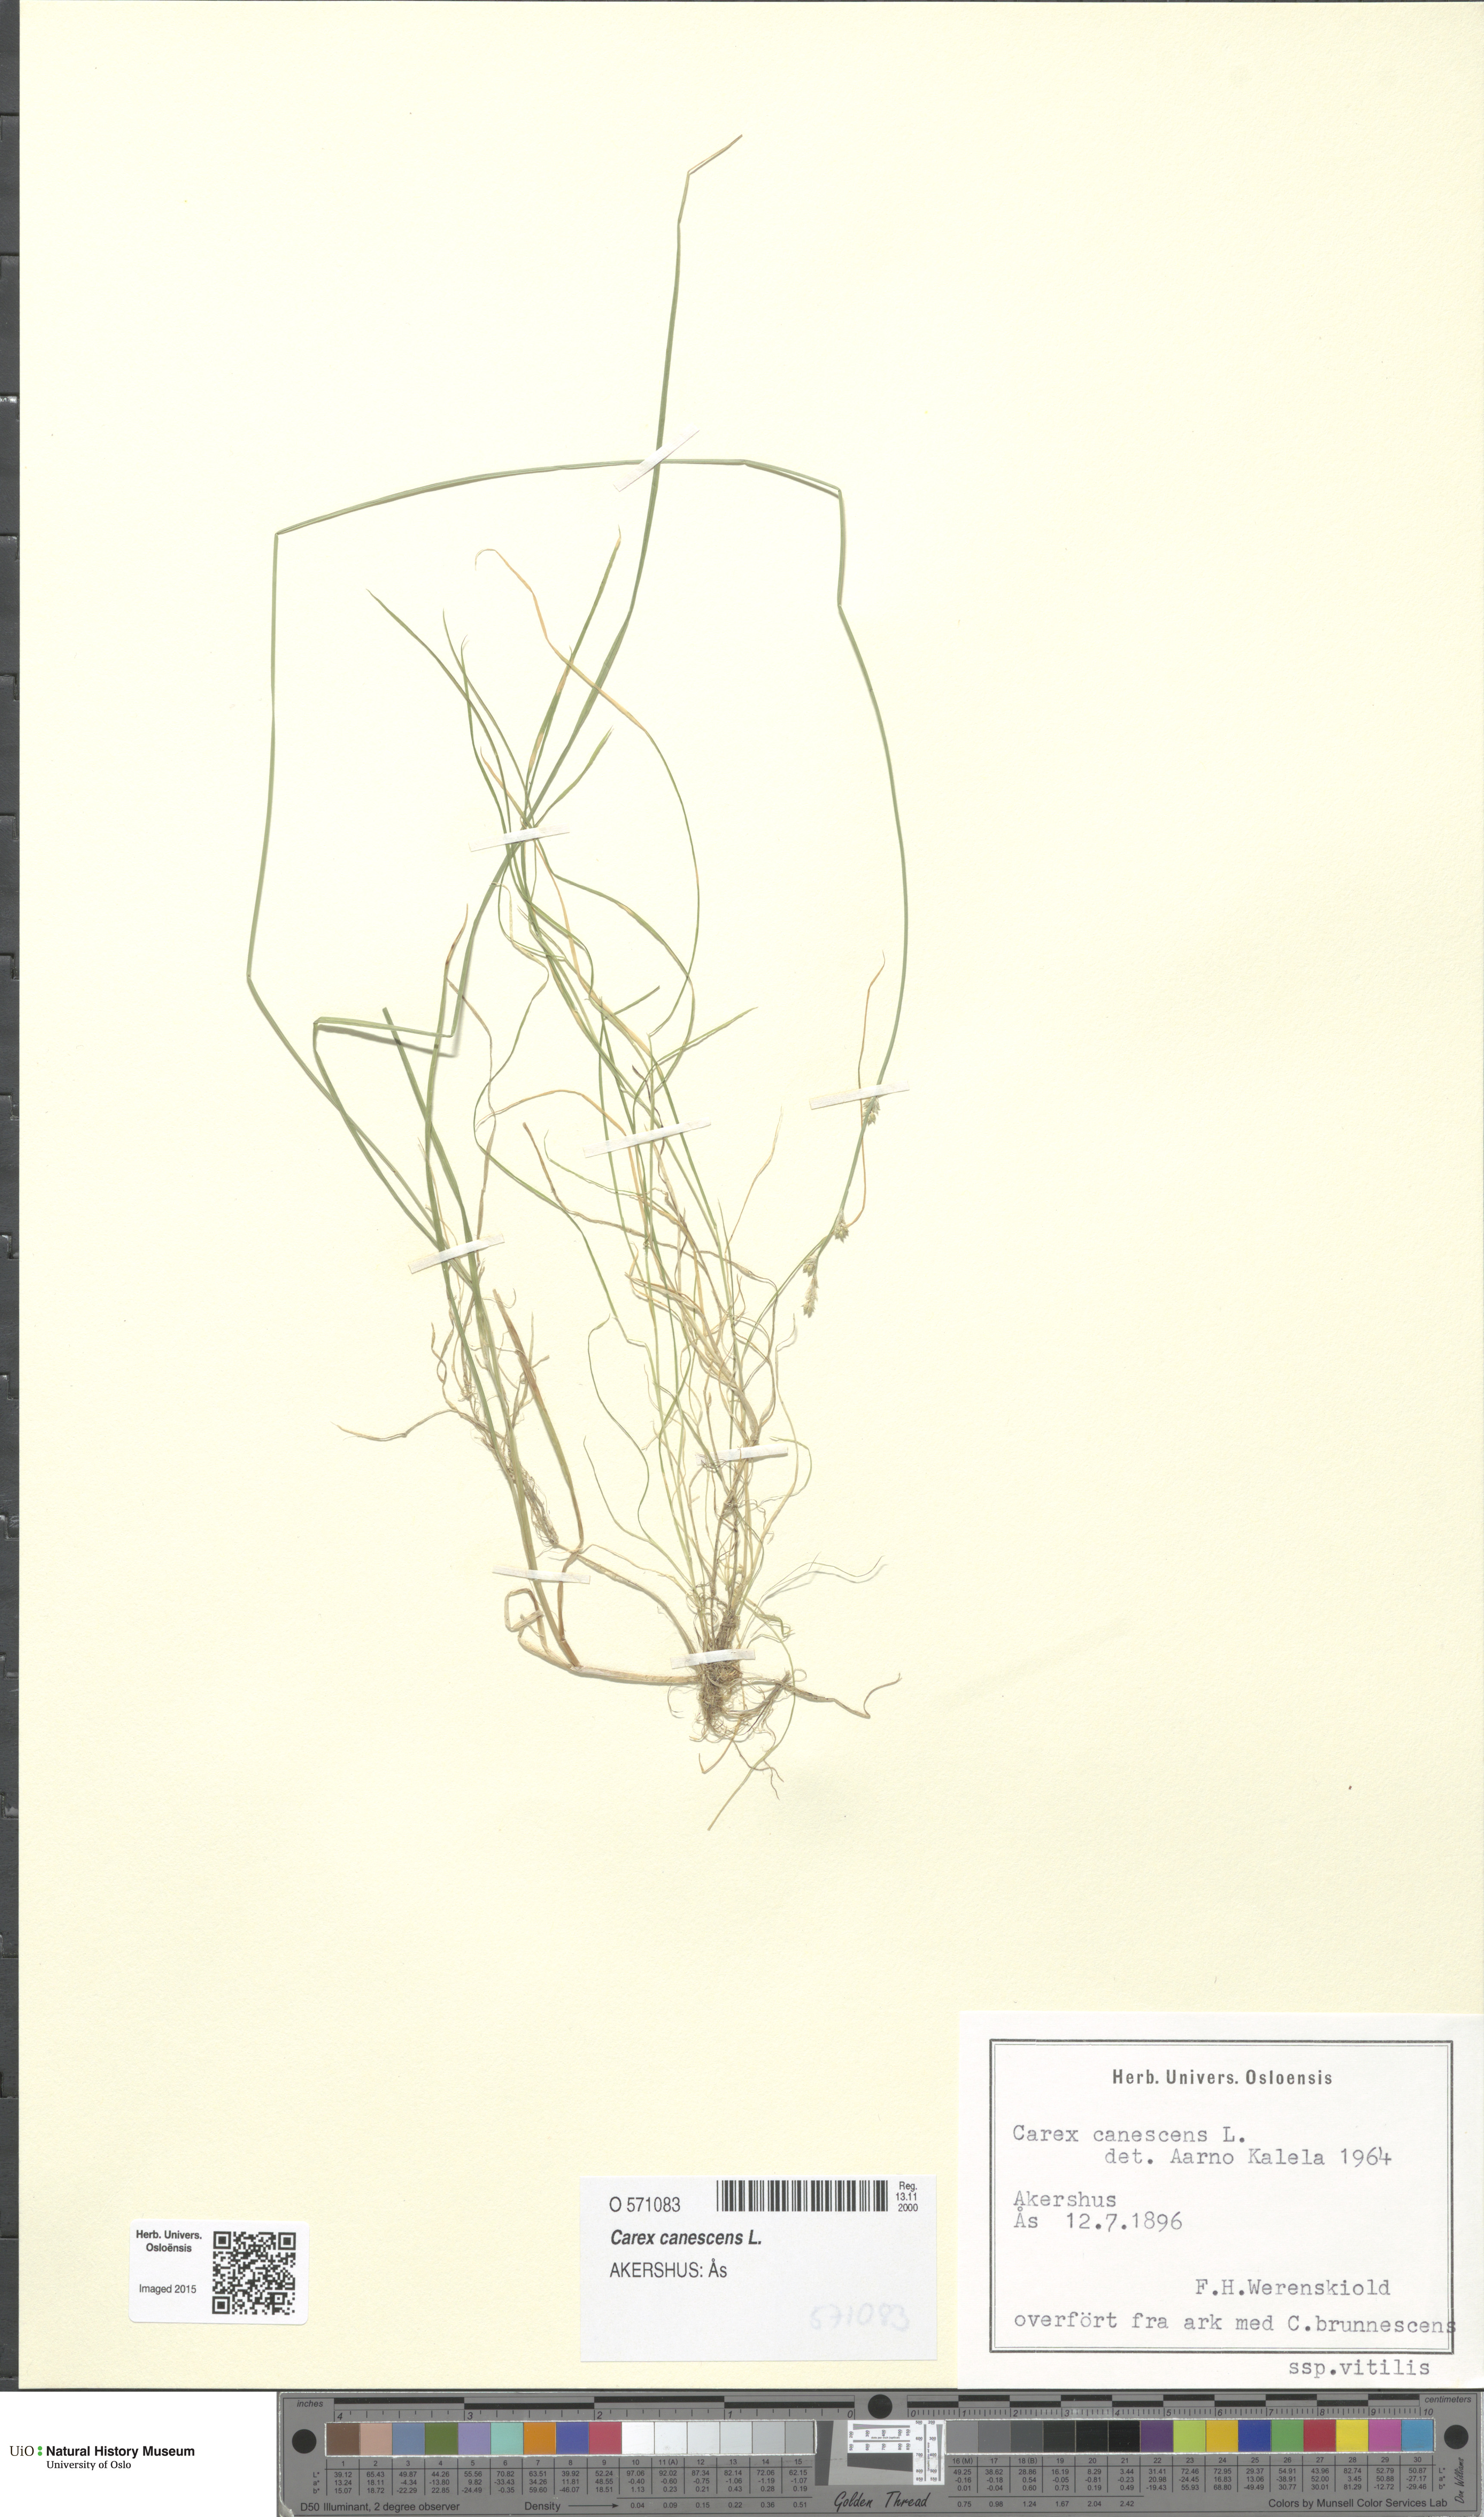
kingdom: Plantae
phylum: Tracheophyta
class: Liliopsida
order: Poales
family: Cyperaceae
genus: Carex
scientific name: Carex canescens
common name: White sedge
